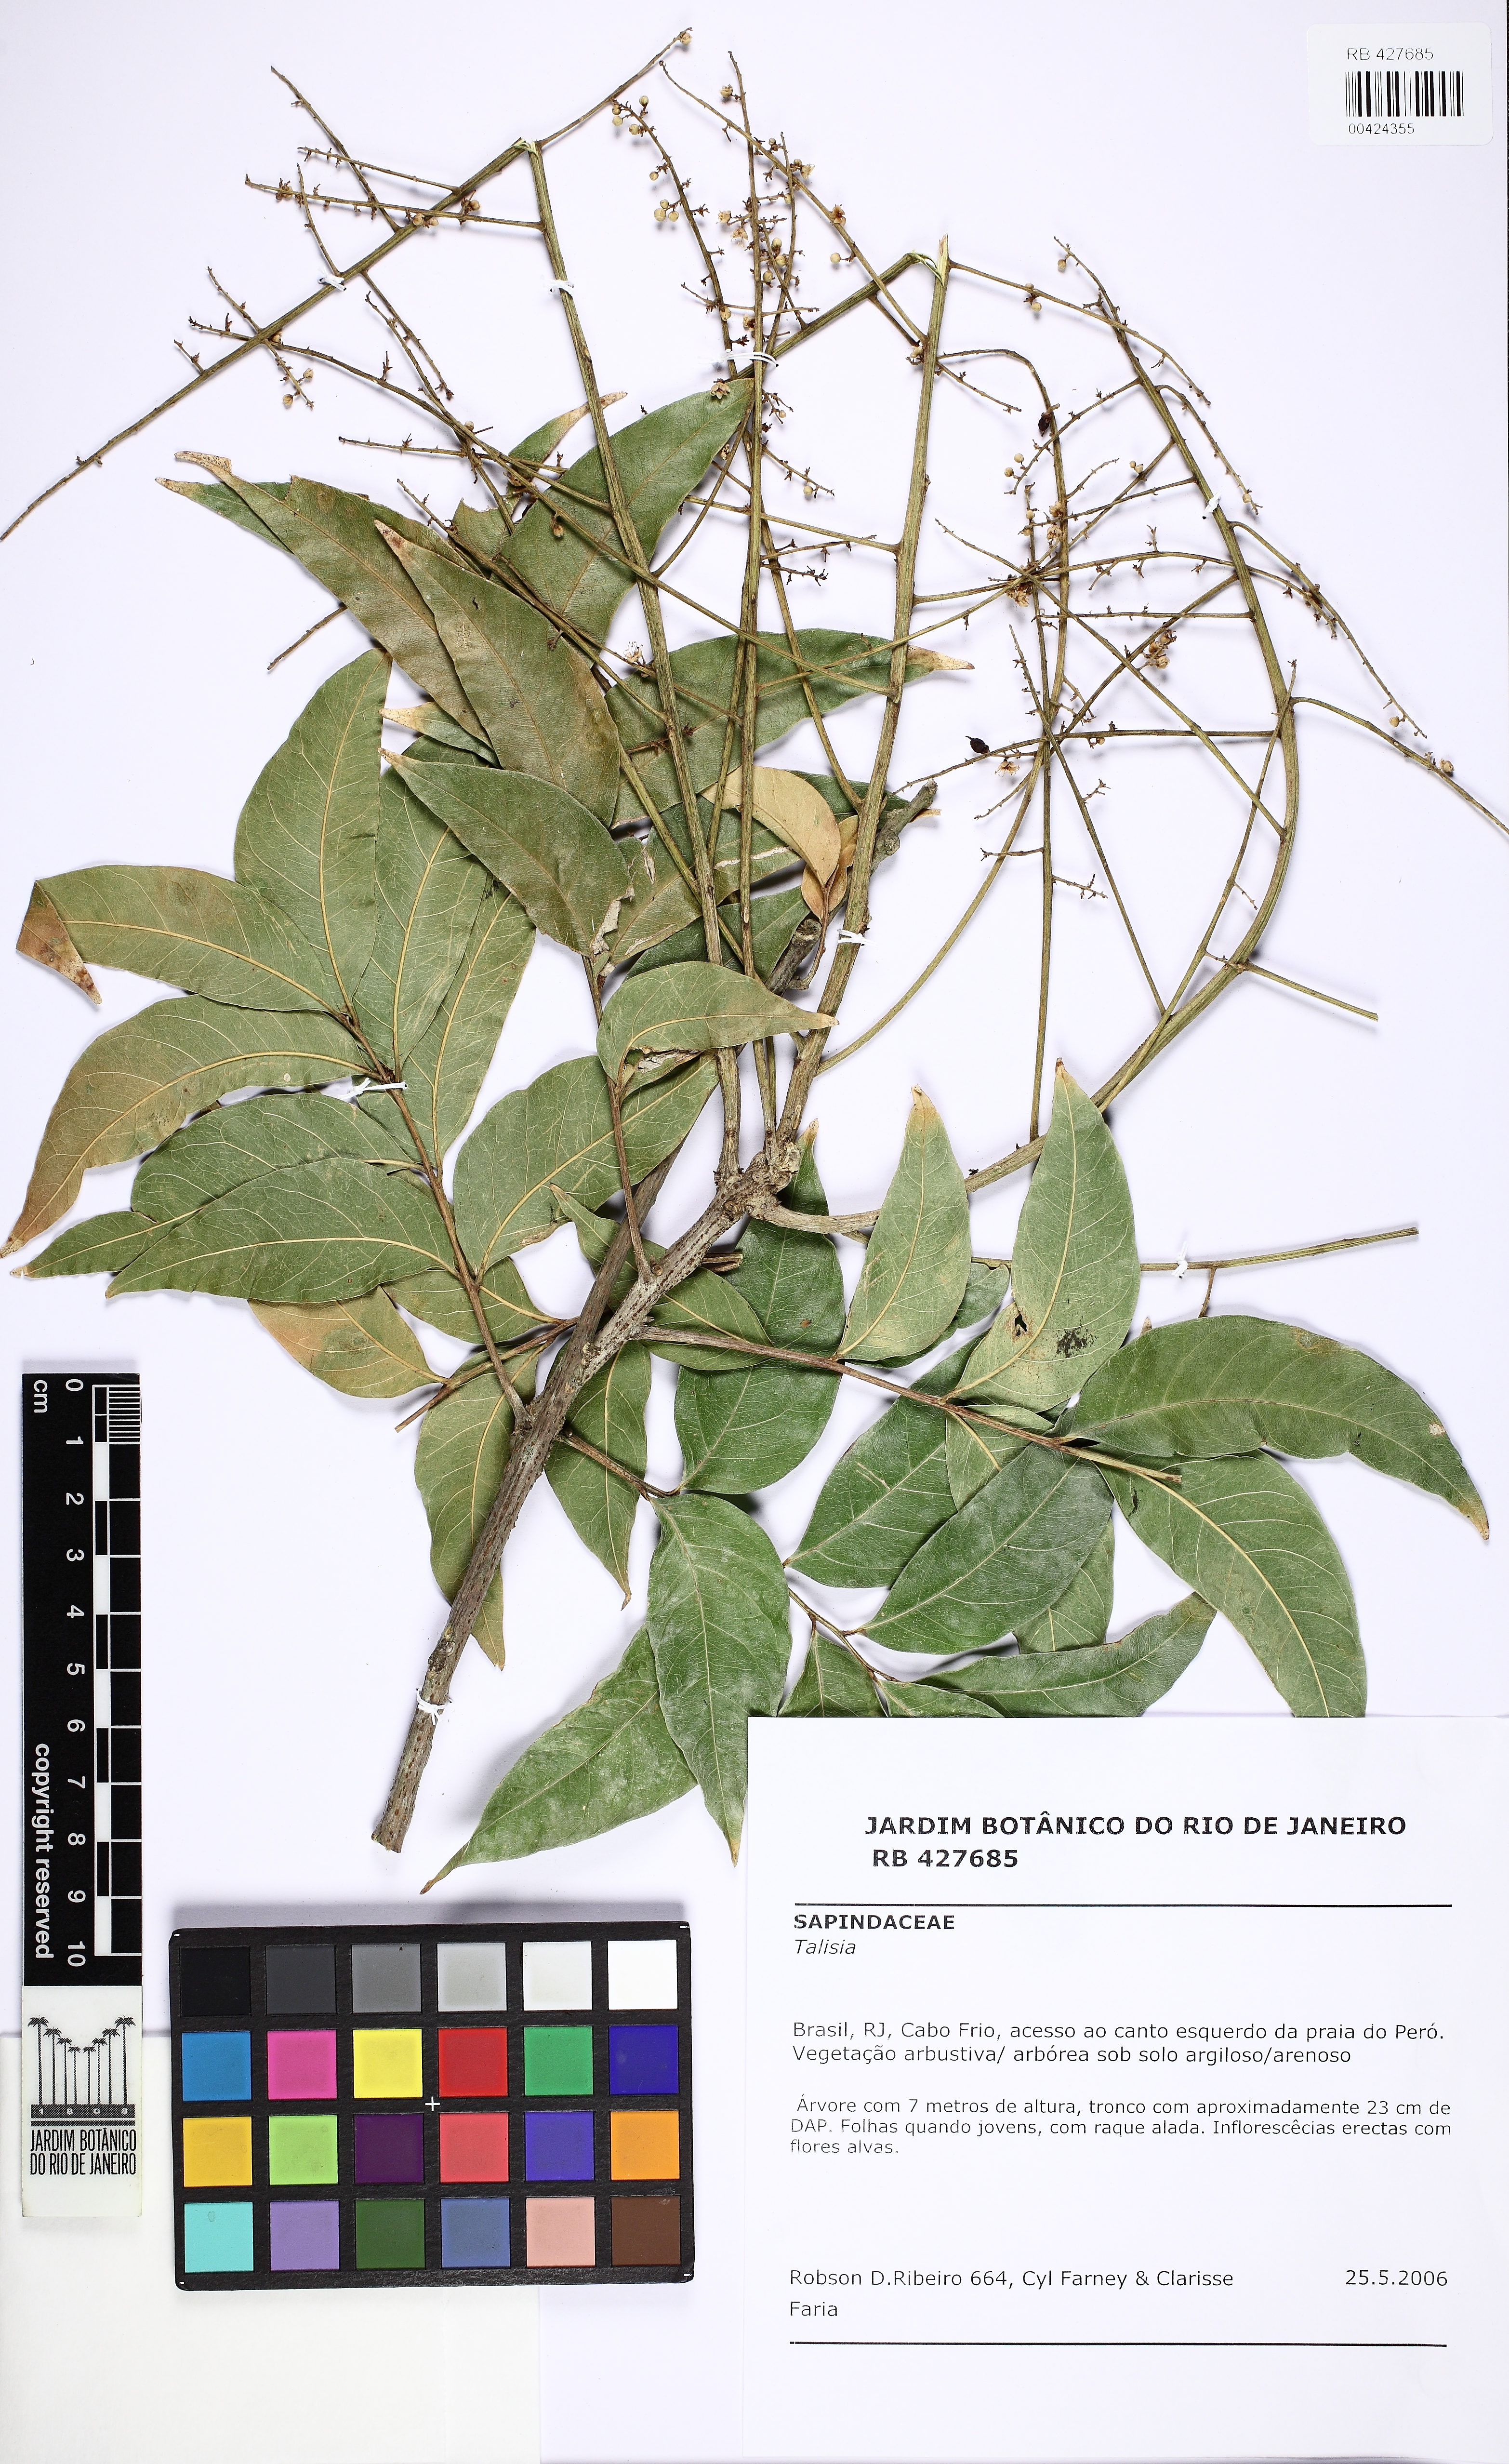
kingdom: Plantae
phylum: Tracheophyta
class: Magnoliopsida
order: Sapindales
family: Sapindaceae
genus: Sapindus
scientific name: Sapindus saponaria
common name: Wingleaf soapberry
